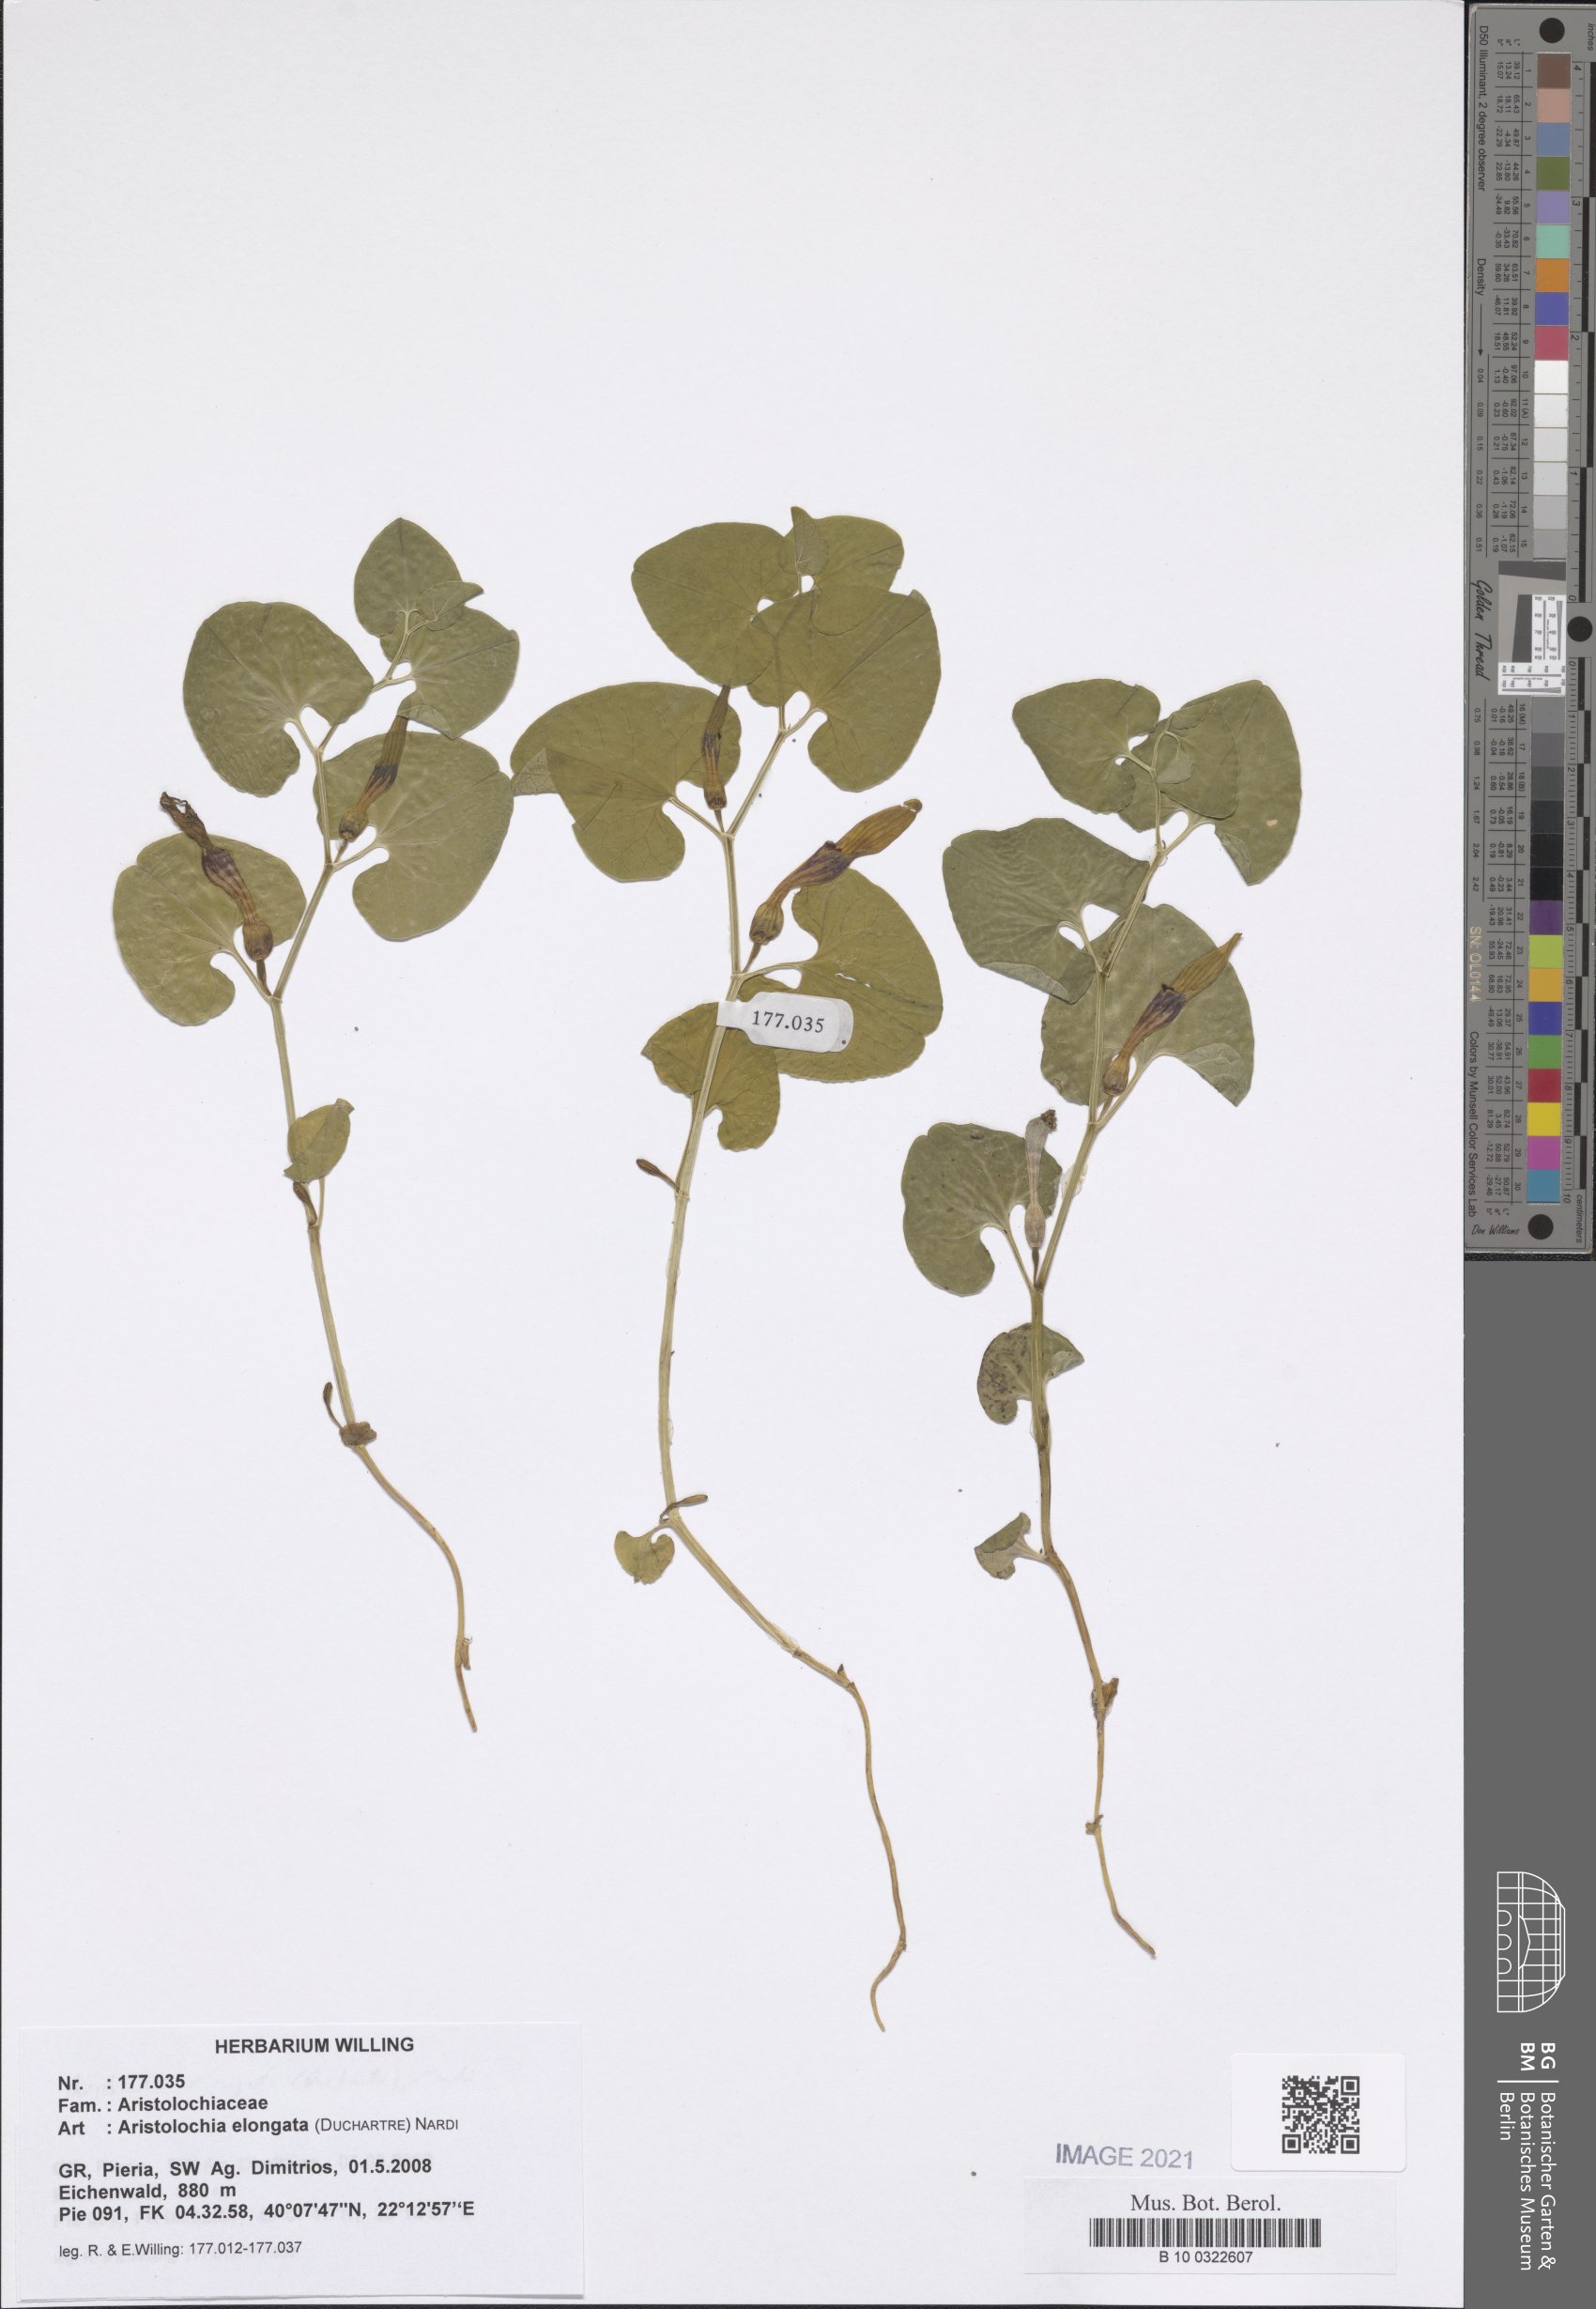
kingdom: Plantae
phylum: Tracheophyta
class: Magnoliopsida
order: Piperales
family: Aristolochiaceae
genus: Aristolochia
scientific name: Aristolochia nardiana
